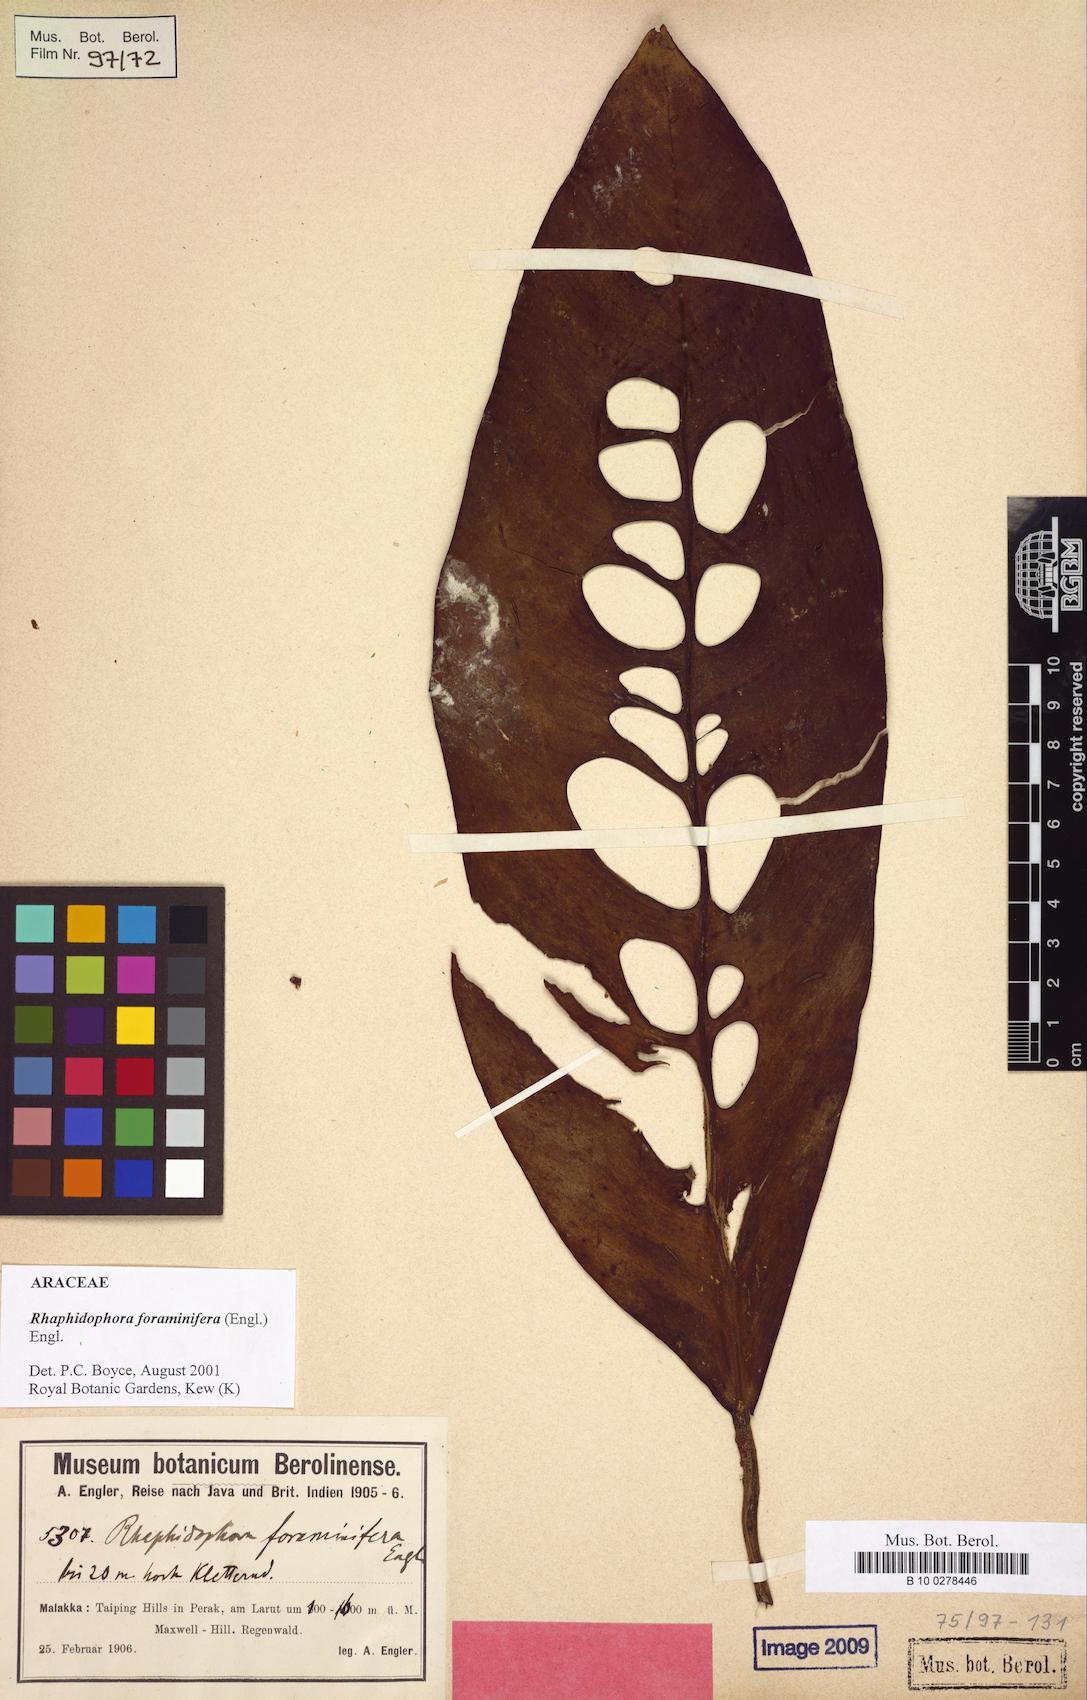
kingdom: Plantae
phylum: Tracheophyta
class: Liliopsida
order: Alismatales
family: Araceae
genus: Rhaphidophora
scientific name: Rhaphidophora foraminifera
